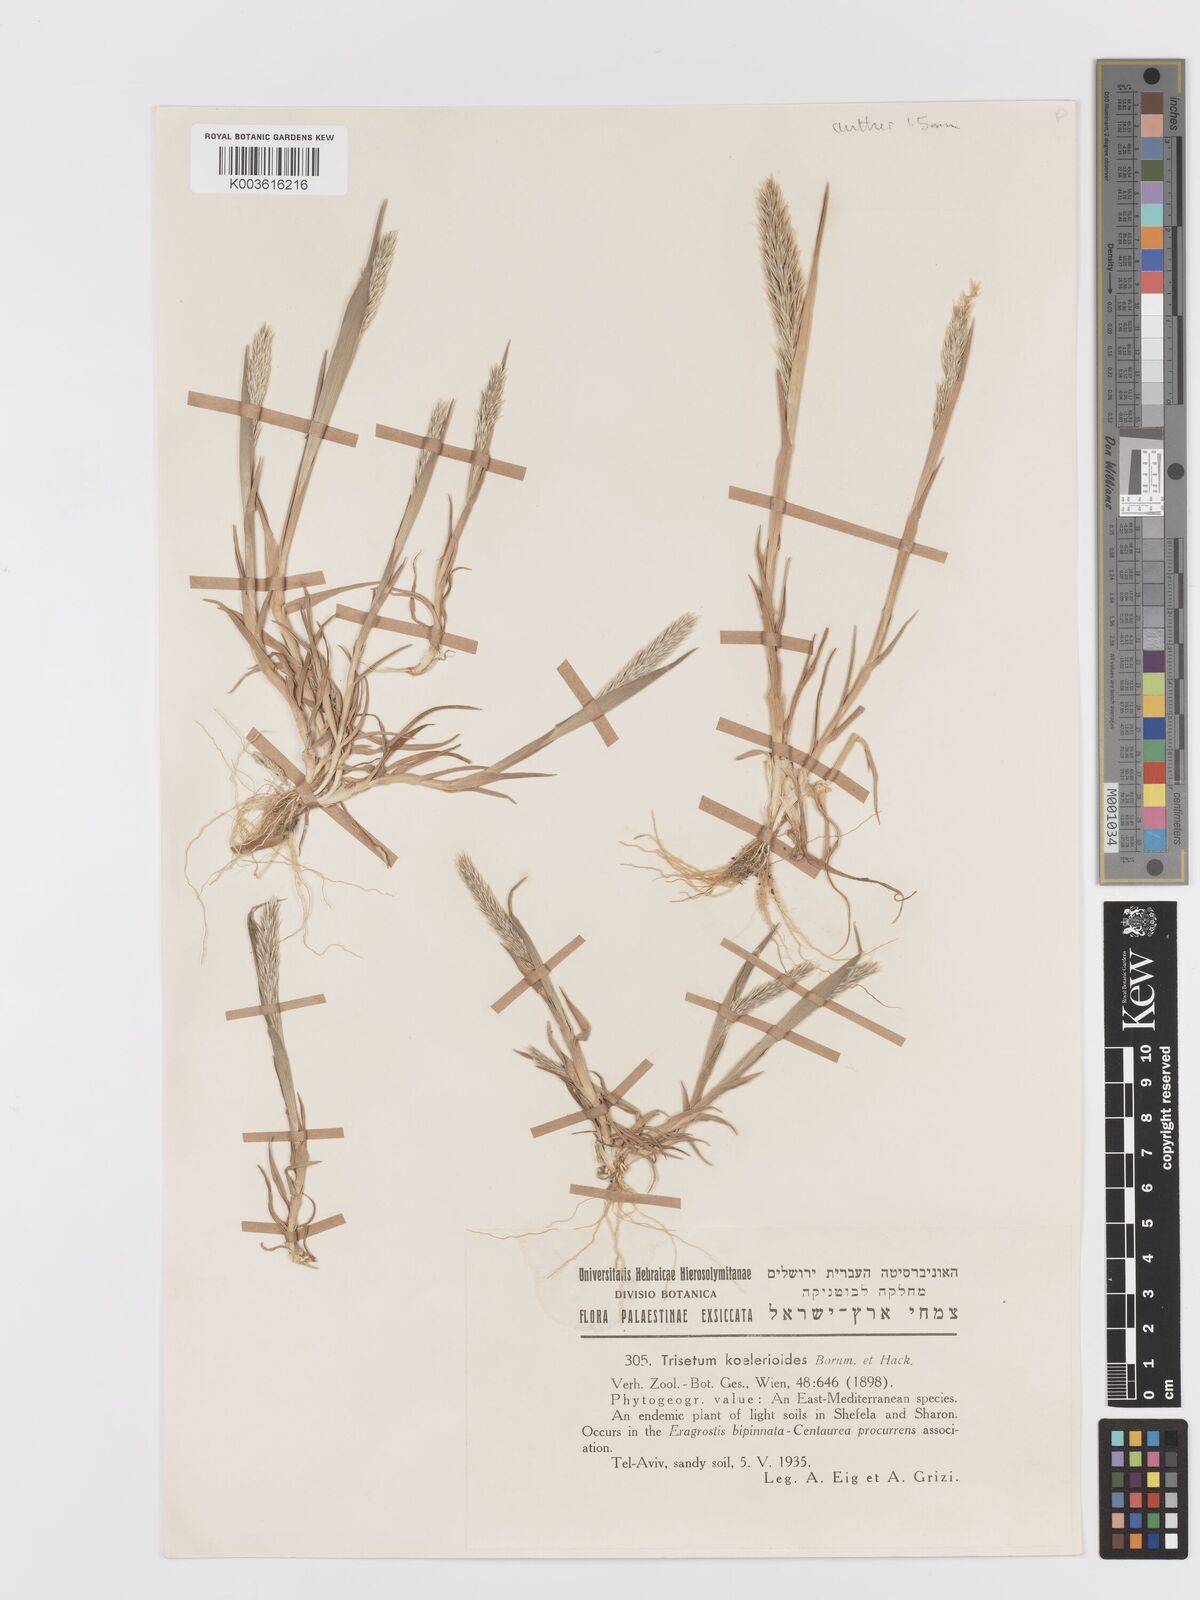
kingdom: Plantae
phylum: Tracheophyta
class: Liliopsida
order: Poales
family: Poaceae
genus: Trisetaria
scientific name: Trisetaria koelerioides
